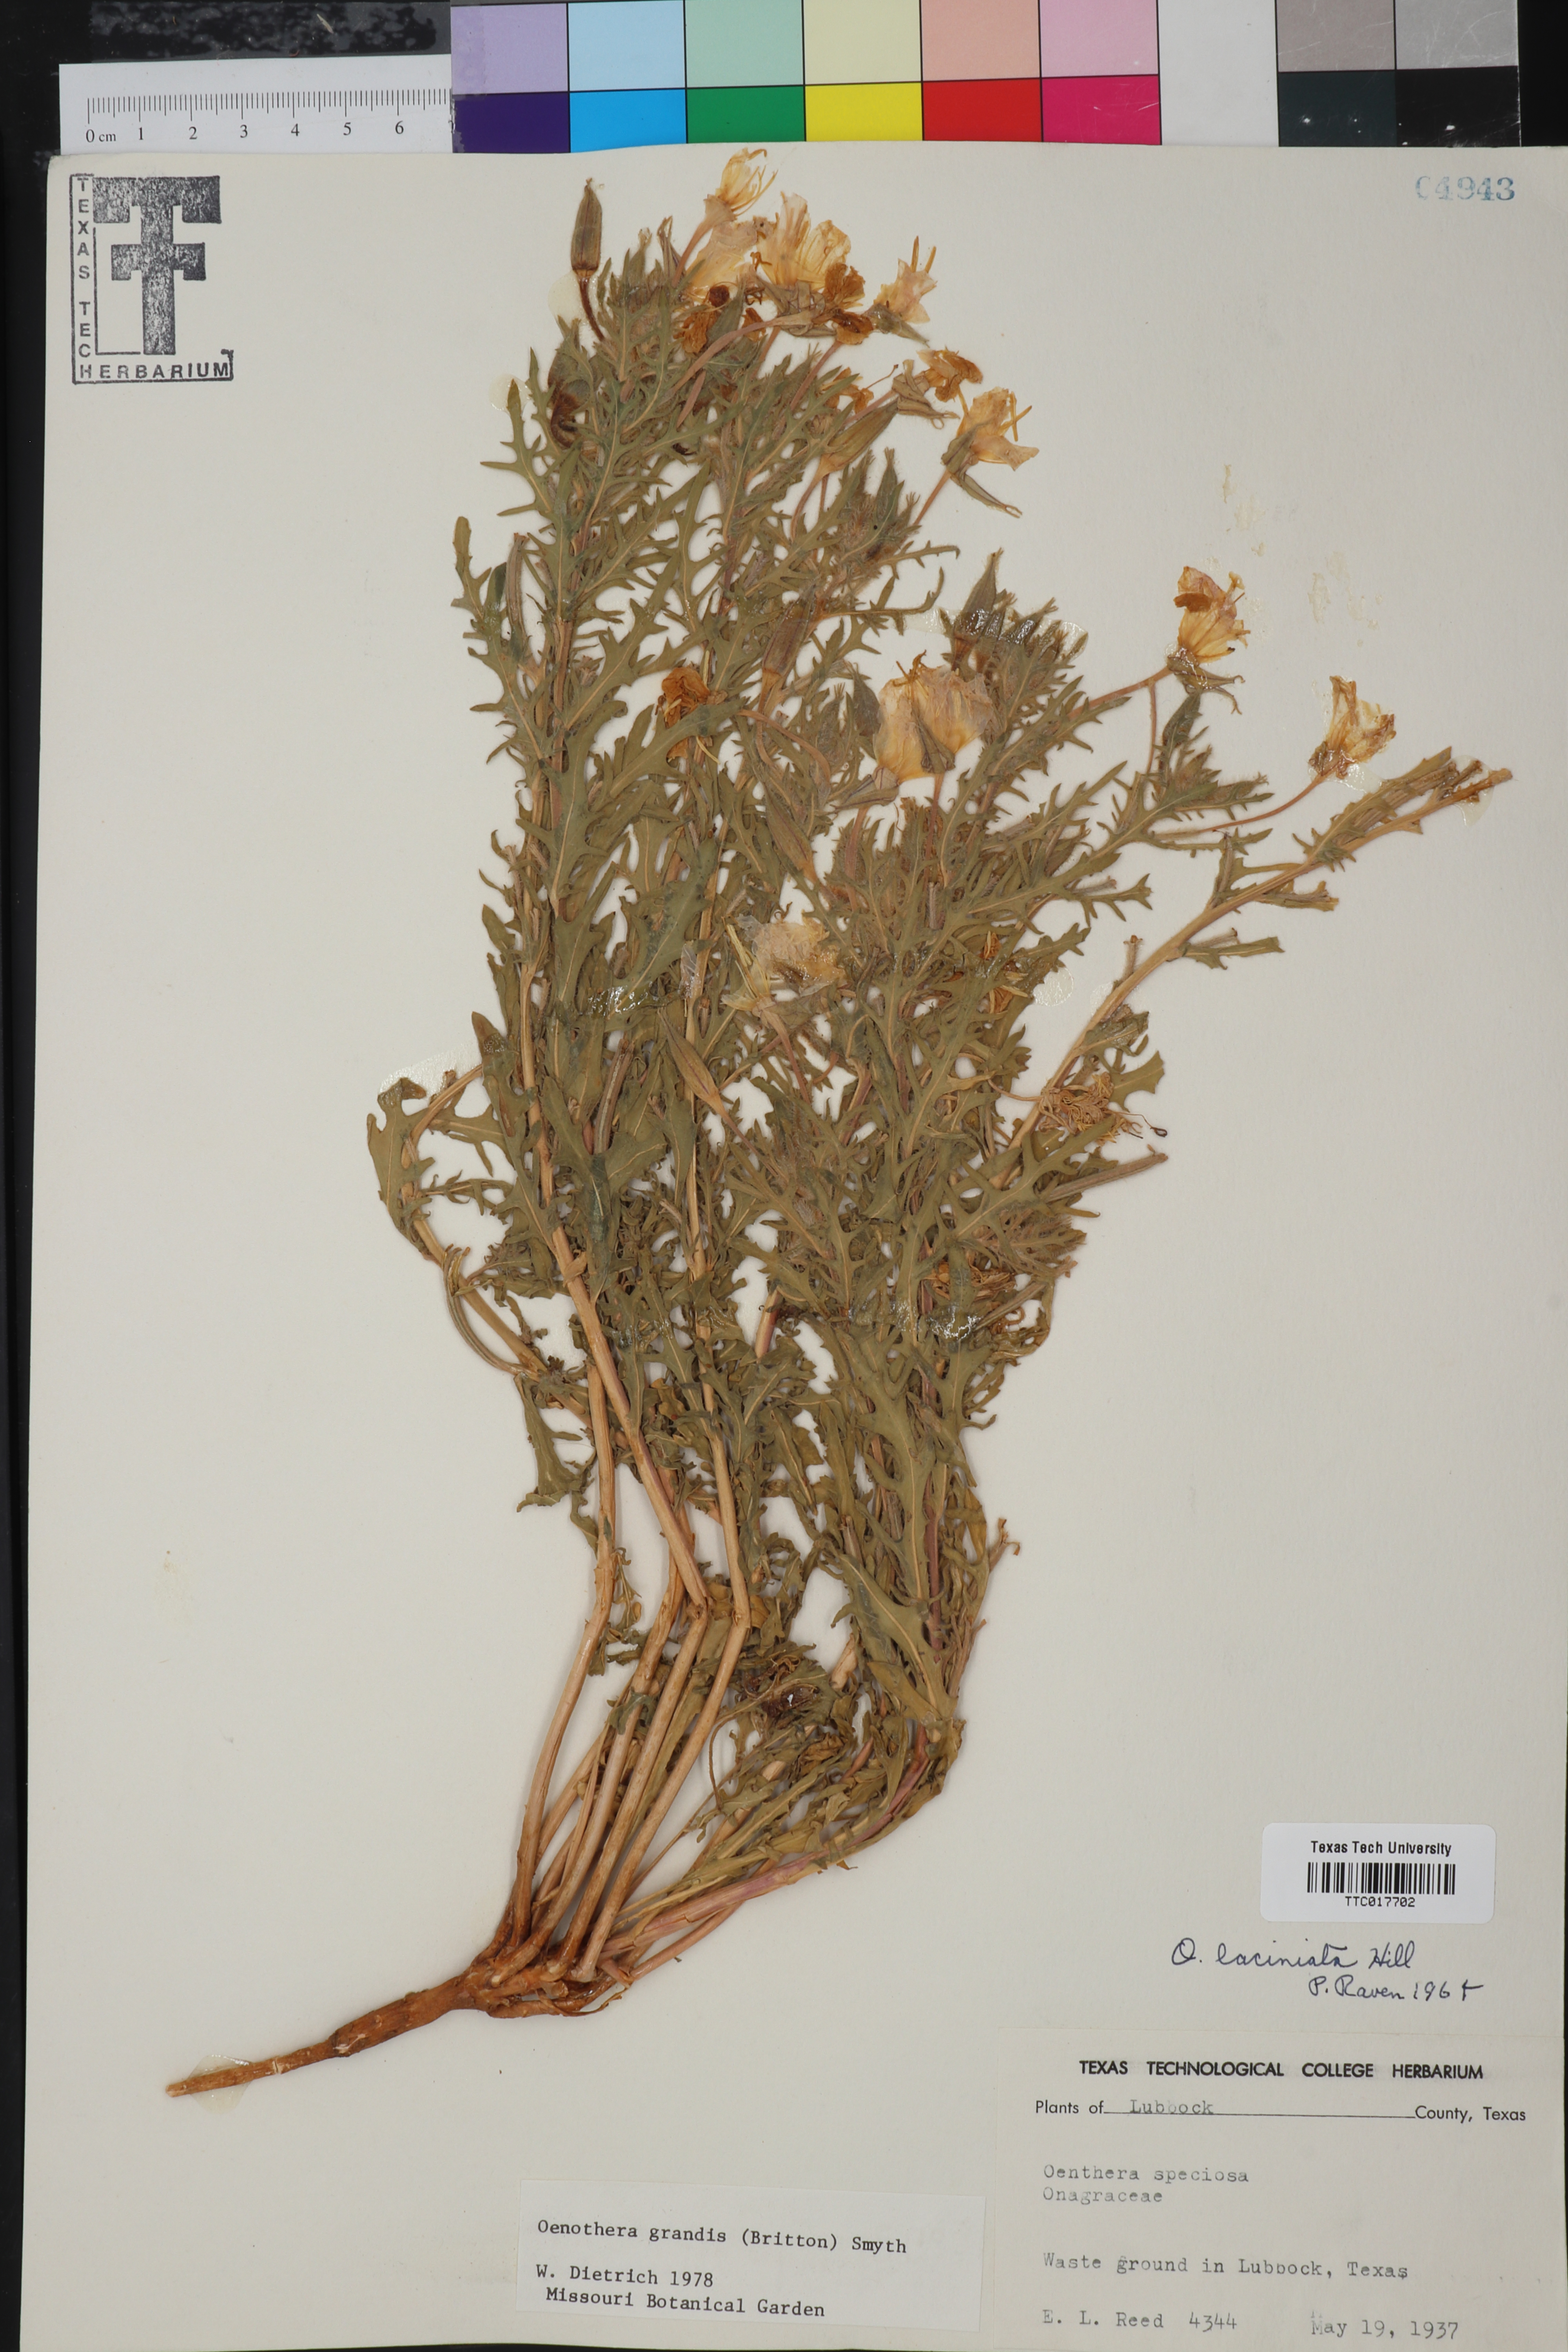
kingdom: Plantae
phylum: Tracheophyta
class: Magnoliopsida
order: Myrtales
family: Onagraceae
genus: Oenothera
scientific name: Oenothera grandis
